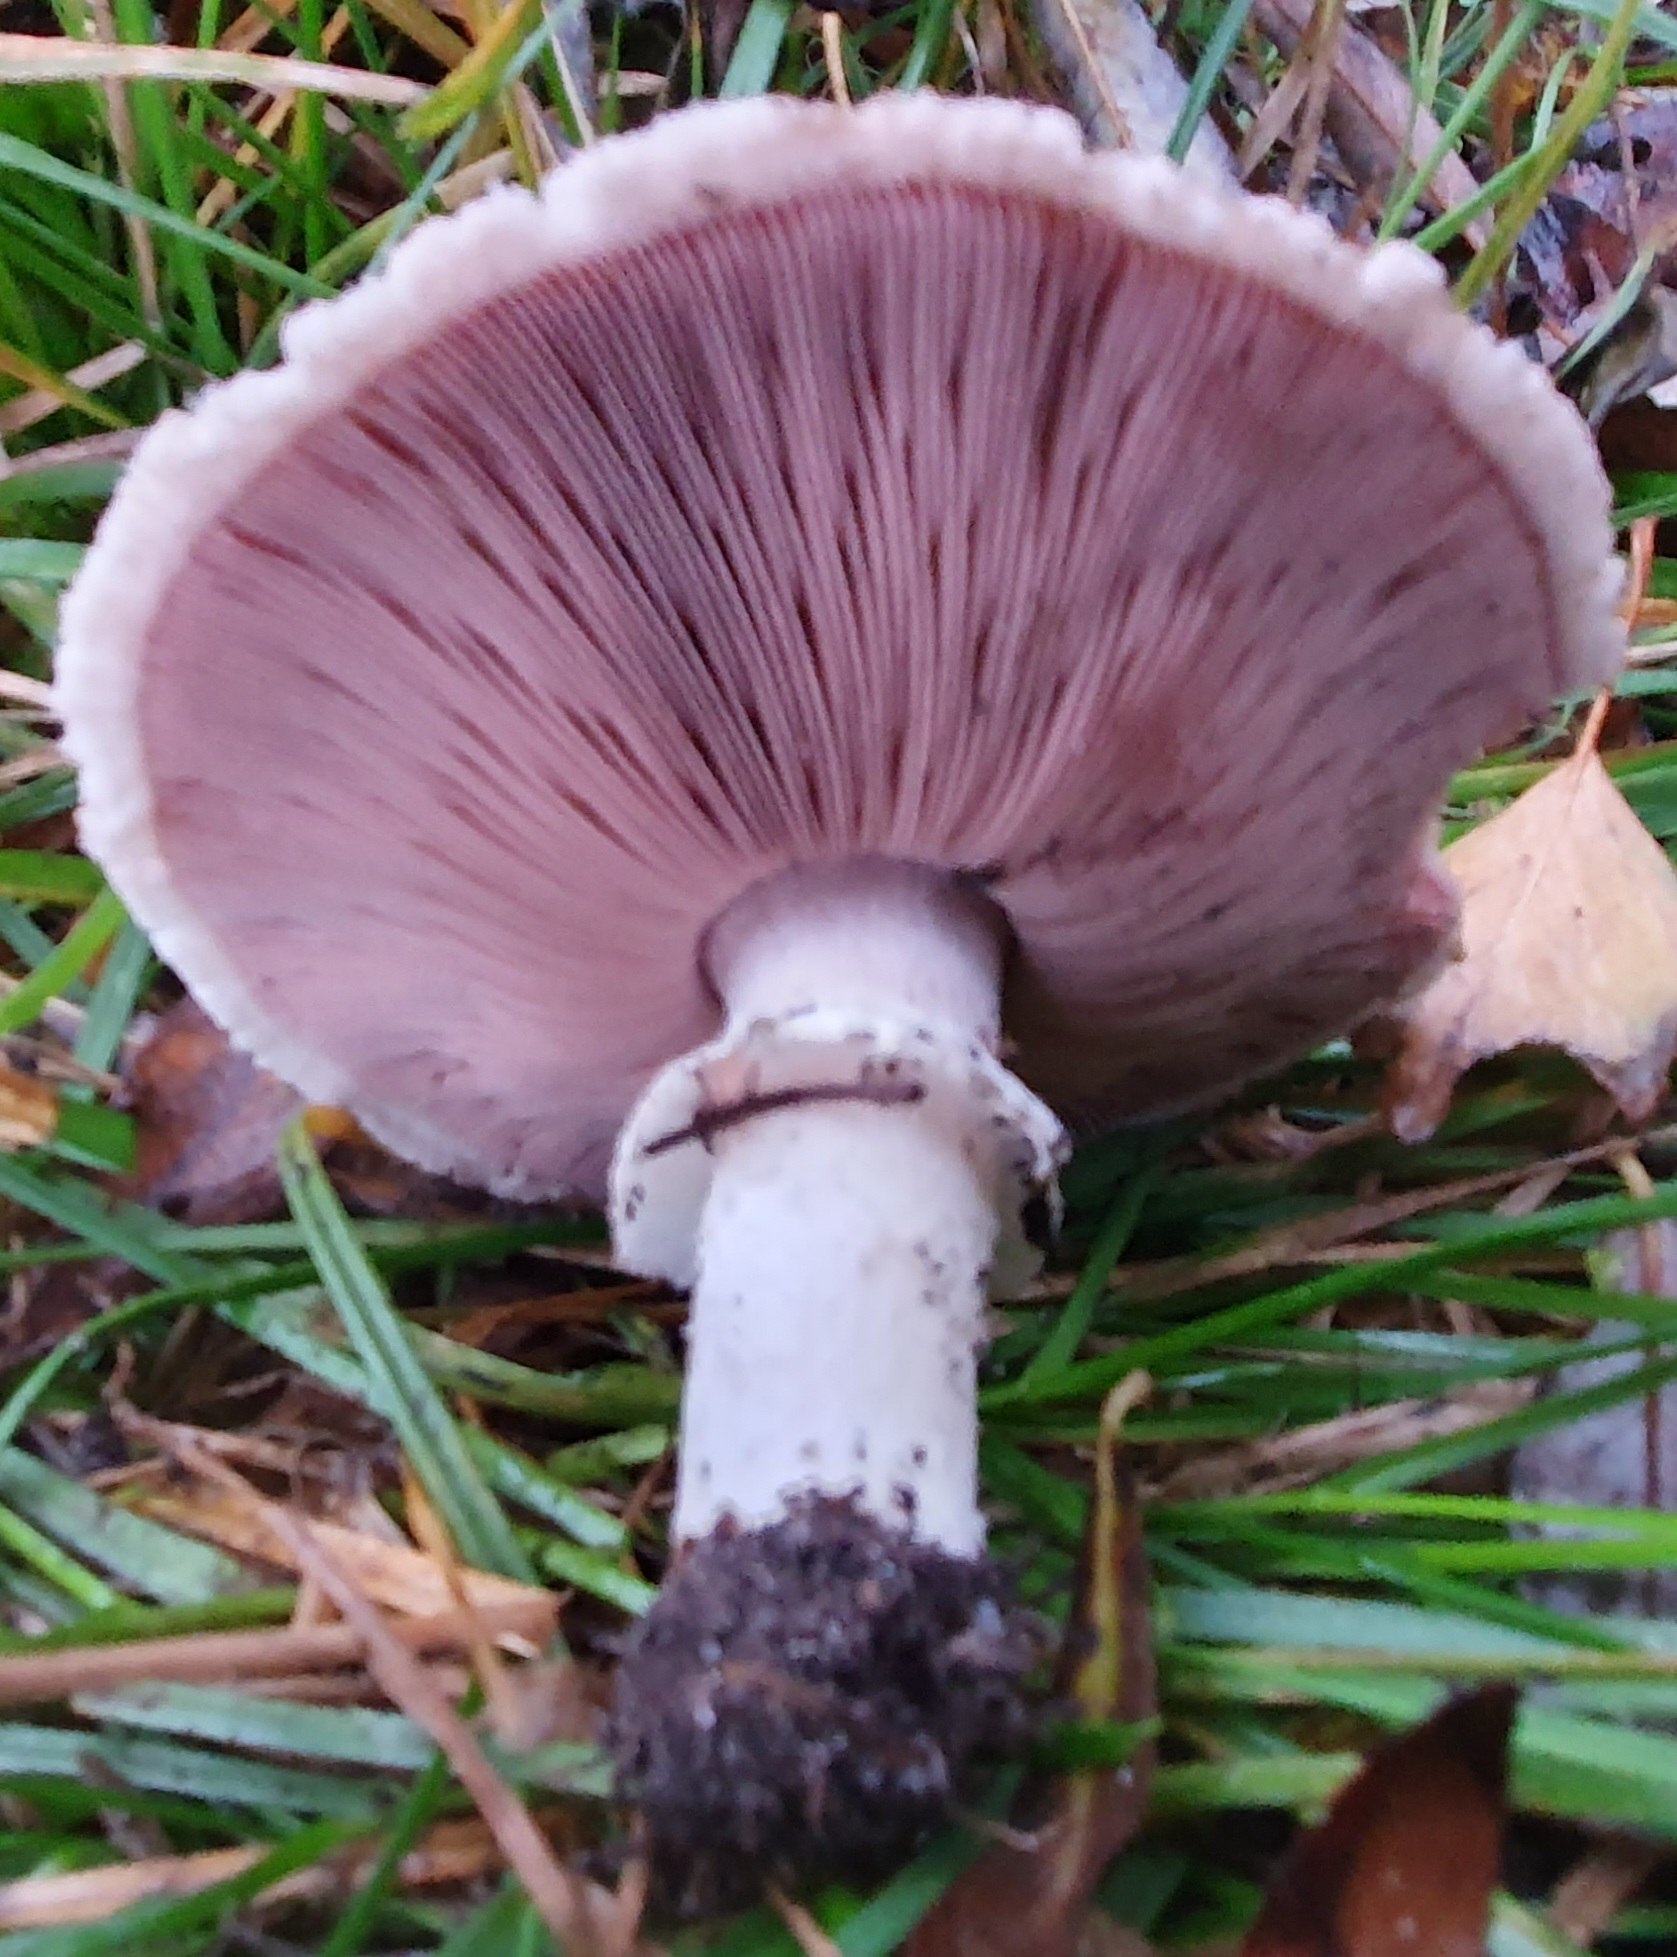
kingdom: Fungi
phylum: Basidiomycota
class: Agaricomycetes
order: Agaricales
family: Agaricaceae
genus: Agaricus
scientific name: Agaricus
